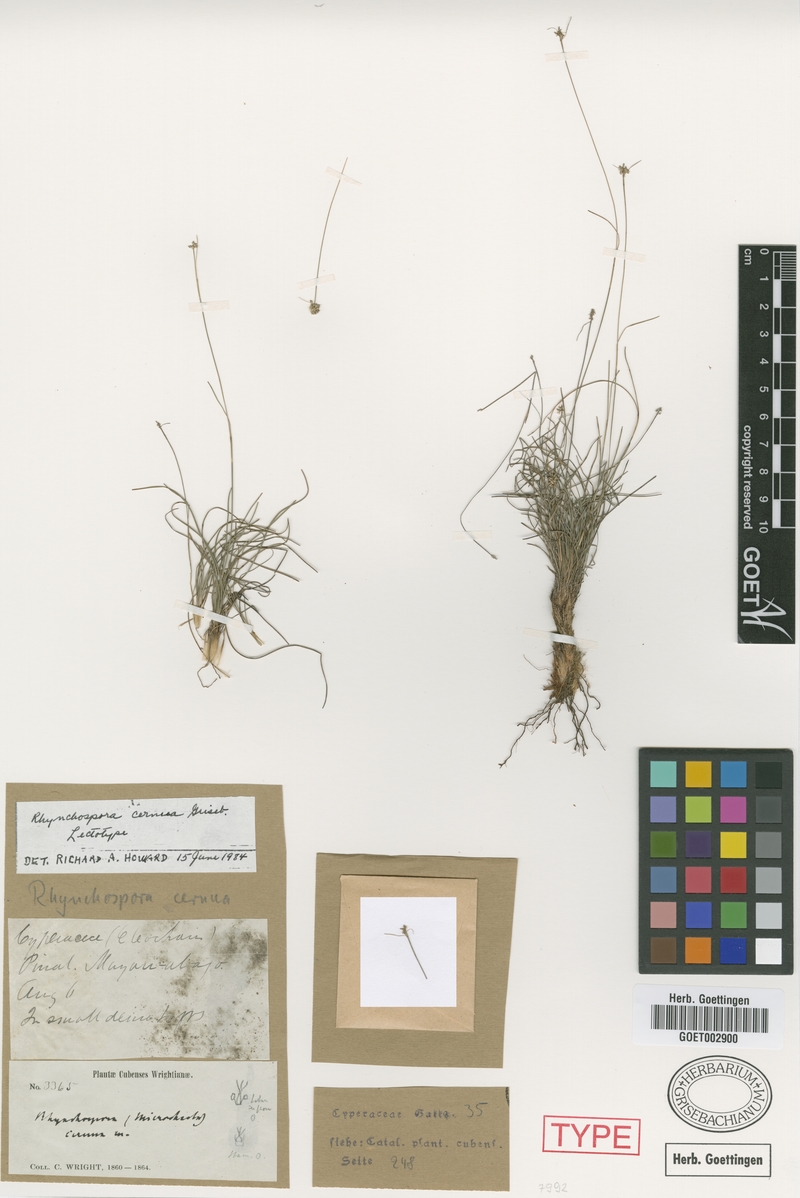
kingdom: Plantae
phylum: Tracheophyta
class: Liliopsida
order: Poales
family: Cyperaceae
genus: Rhynchospora
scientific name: Rhynchospora cernua
